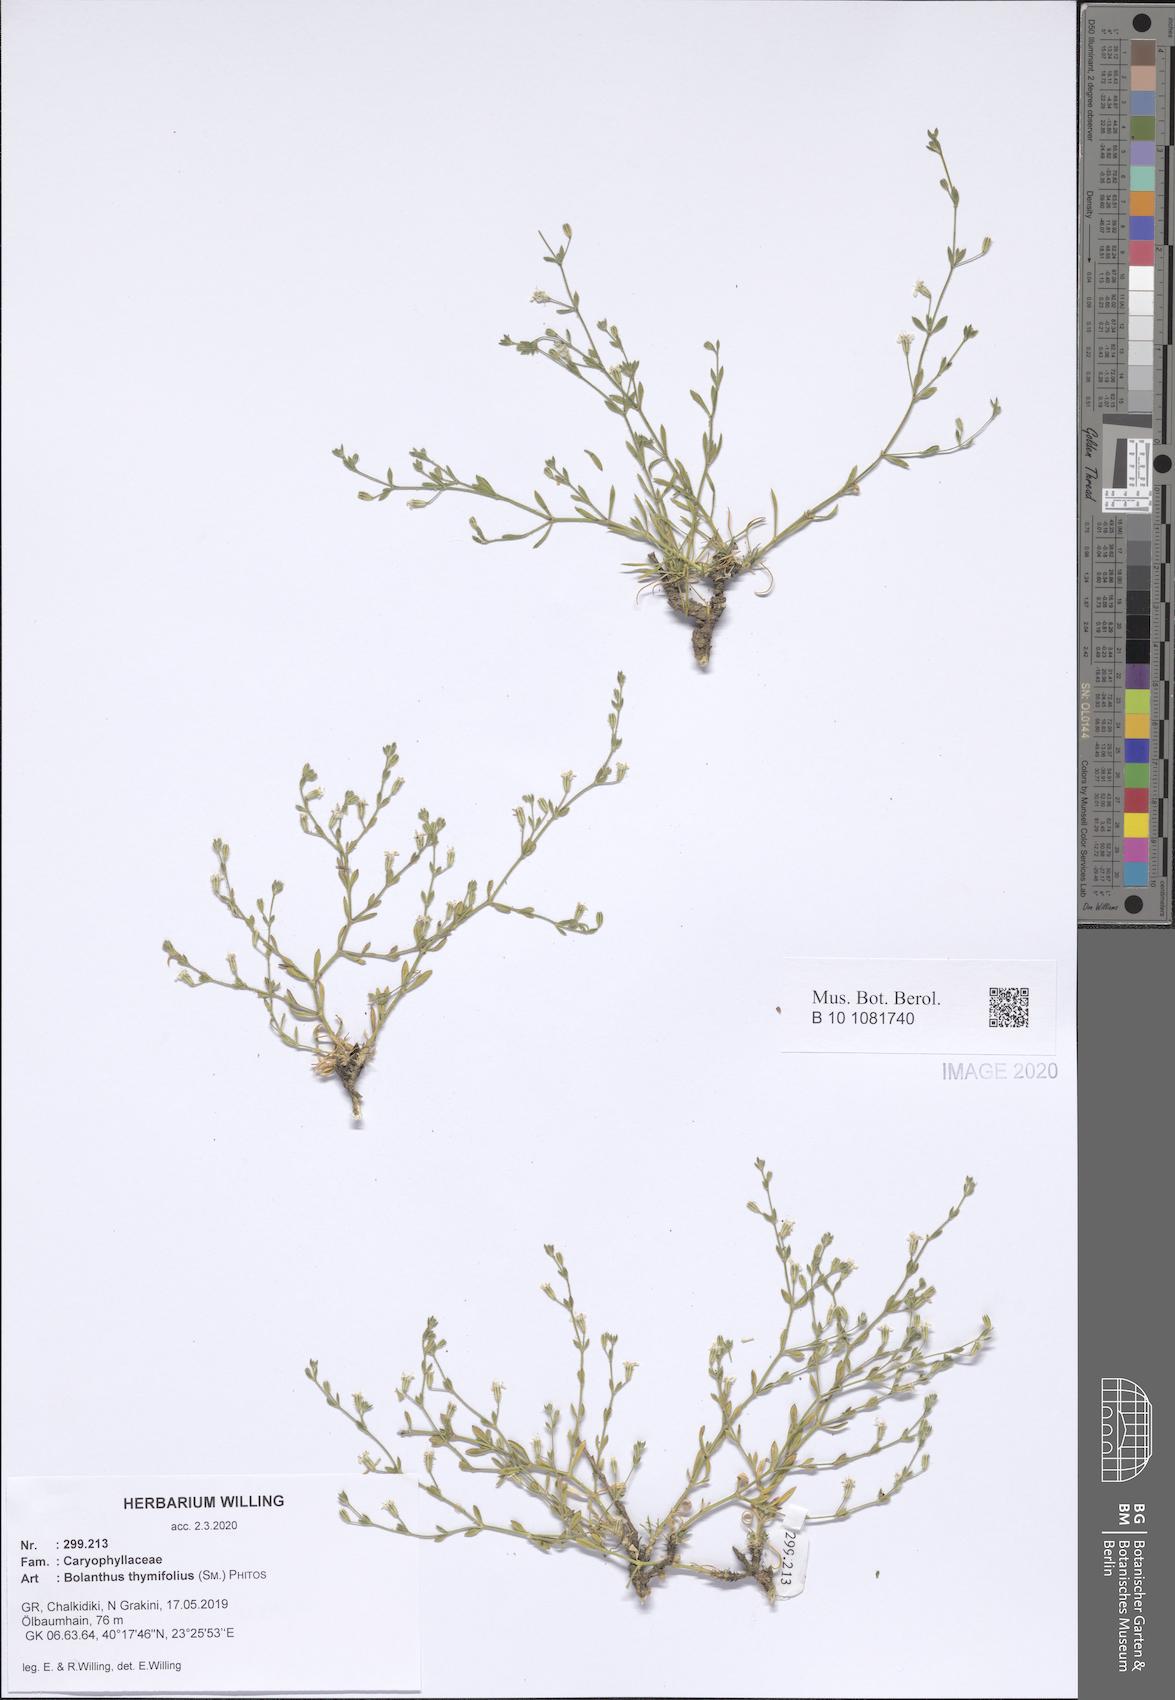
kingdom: Plantae
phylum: Tracheophyta
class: Magnoliopsida
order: Caryophyllales
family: Caryophyllaceae
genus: Graecobolanthus
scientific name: Graecobolanthus thymifolius
